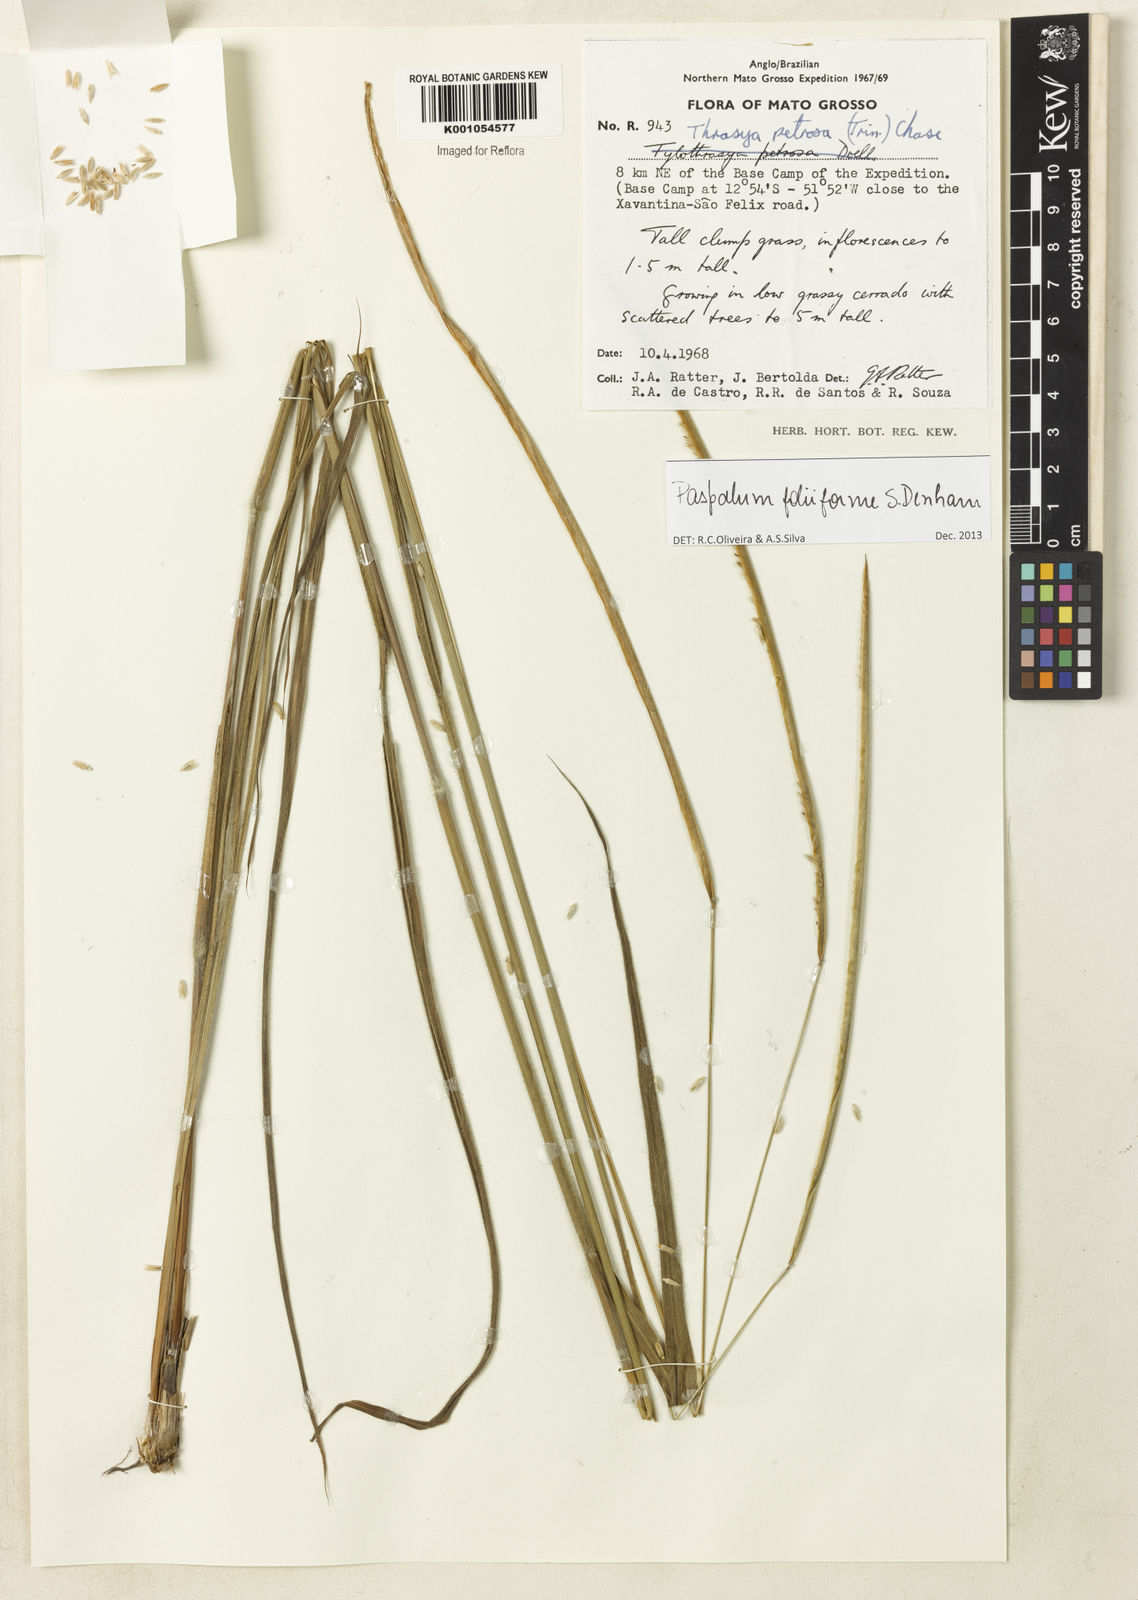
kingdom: Plantae
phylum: Tracheophyta
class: Liliopsida
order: Poales
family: Poaceae
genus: Paspalum
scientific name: Paspalum foliiforme
